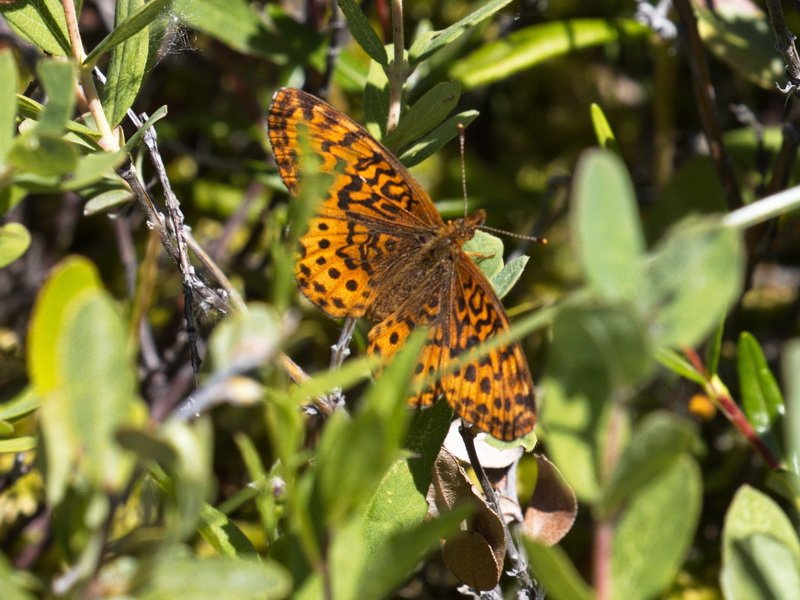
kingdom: Animalia
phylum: Arthropoda
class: Insecta
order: Lepidoptera
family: Nymphalidae
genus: Clossiana
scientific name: Clossiana toddi
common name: Meadow Fritillary
